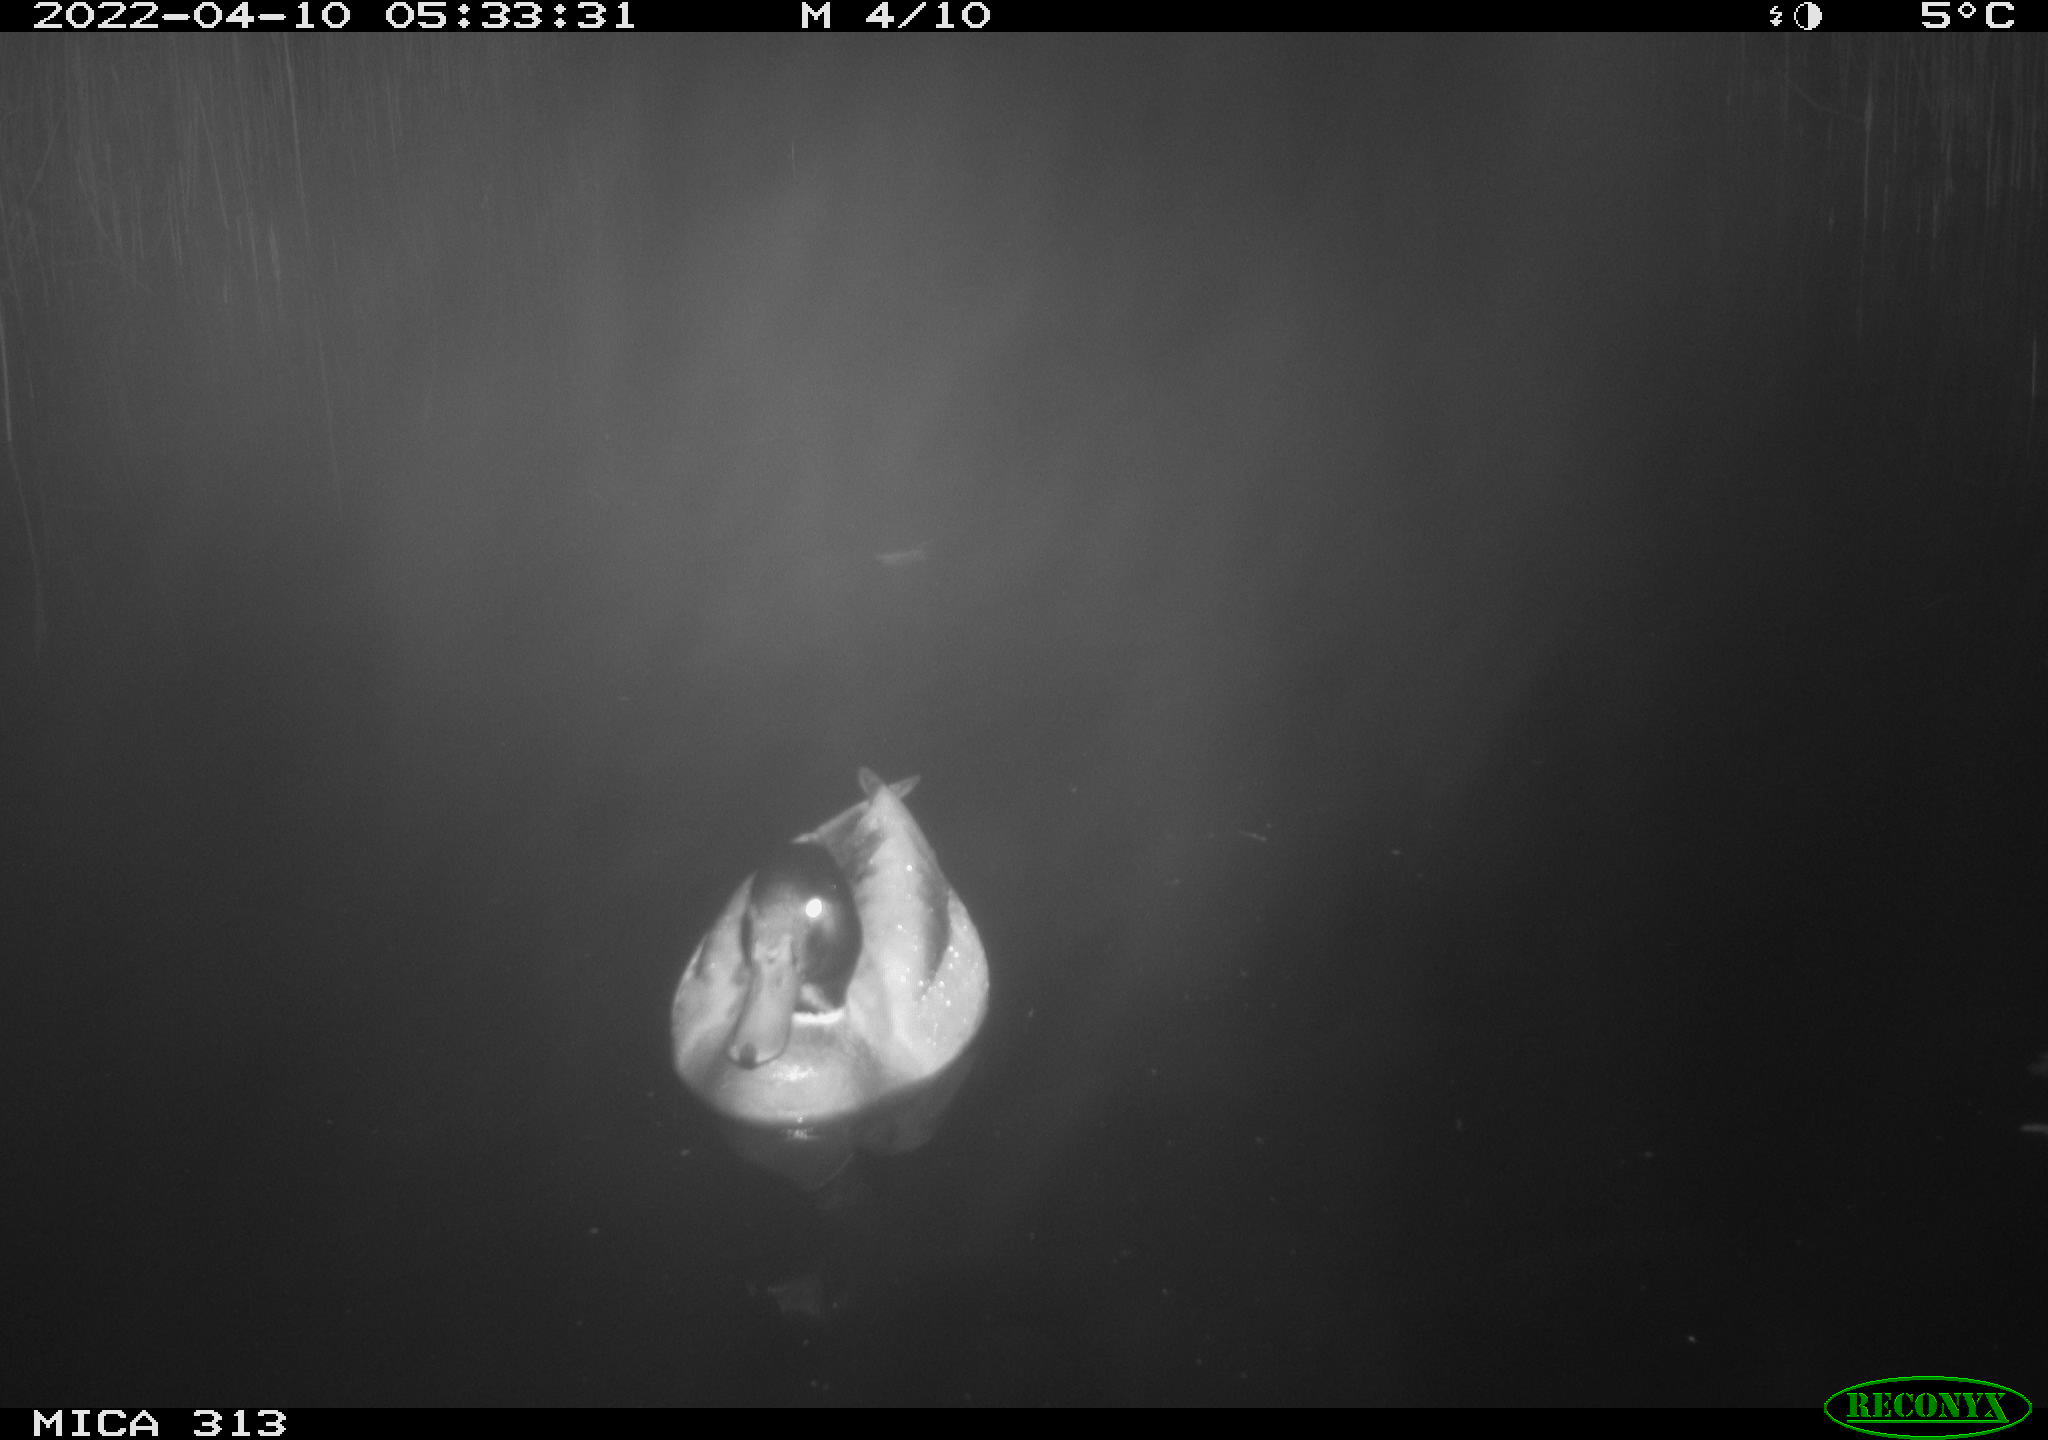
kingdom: Animalia
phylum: Chordata
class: Aves
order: Anseriformes
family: Anatidae
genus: Anas
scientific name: Anas platyrhynchos
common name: Mallard
